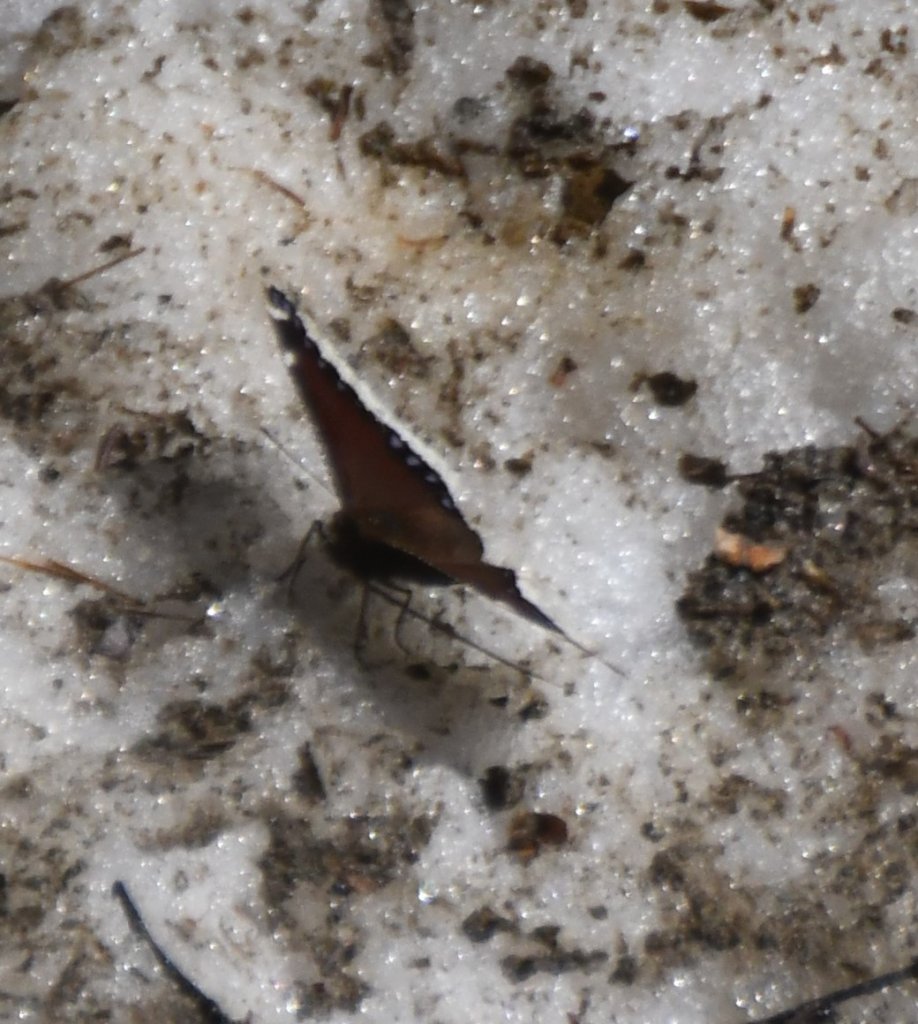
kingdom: Animalia
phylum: Arthropoda
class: Insecta
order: Lepidoptera
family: Nymphalidae
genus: Nymphalis
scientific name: Nymphalis antiopa
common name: Mourning Cloak
